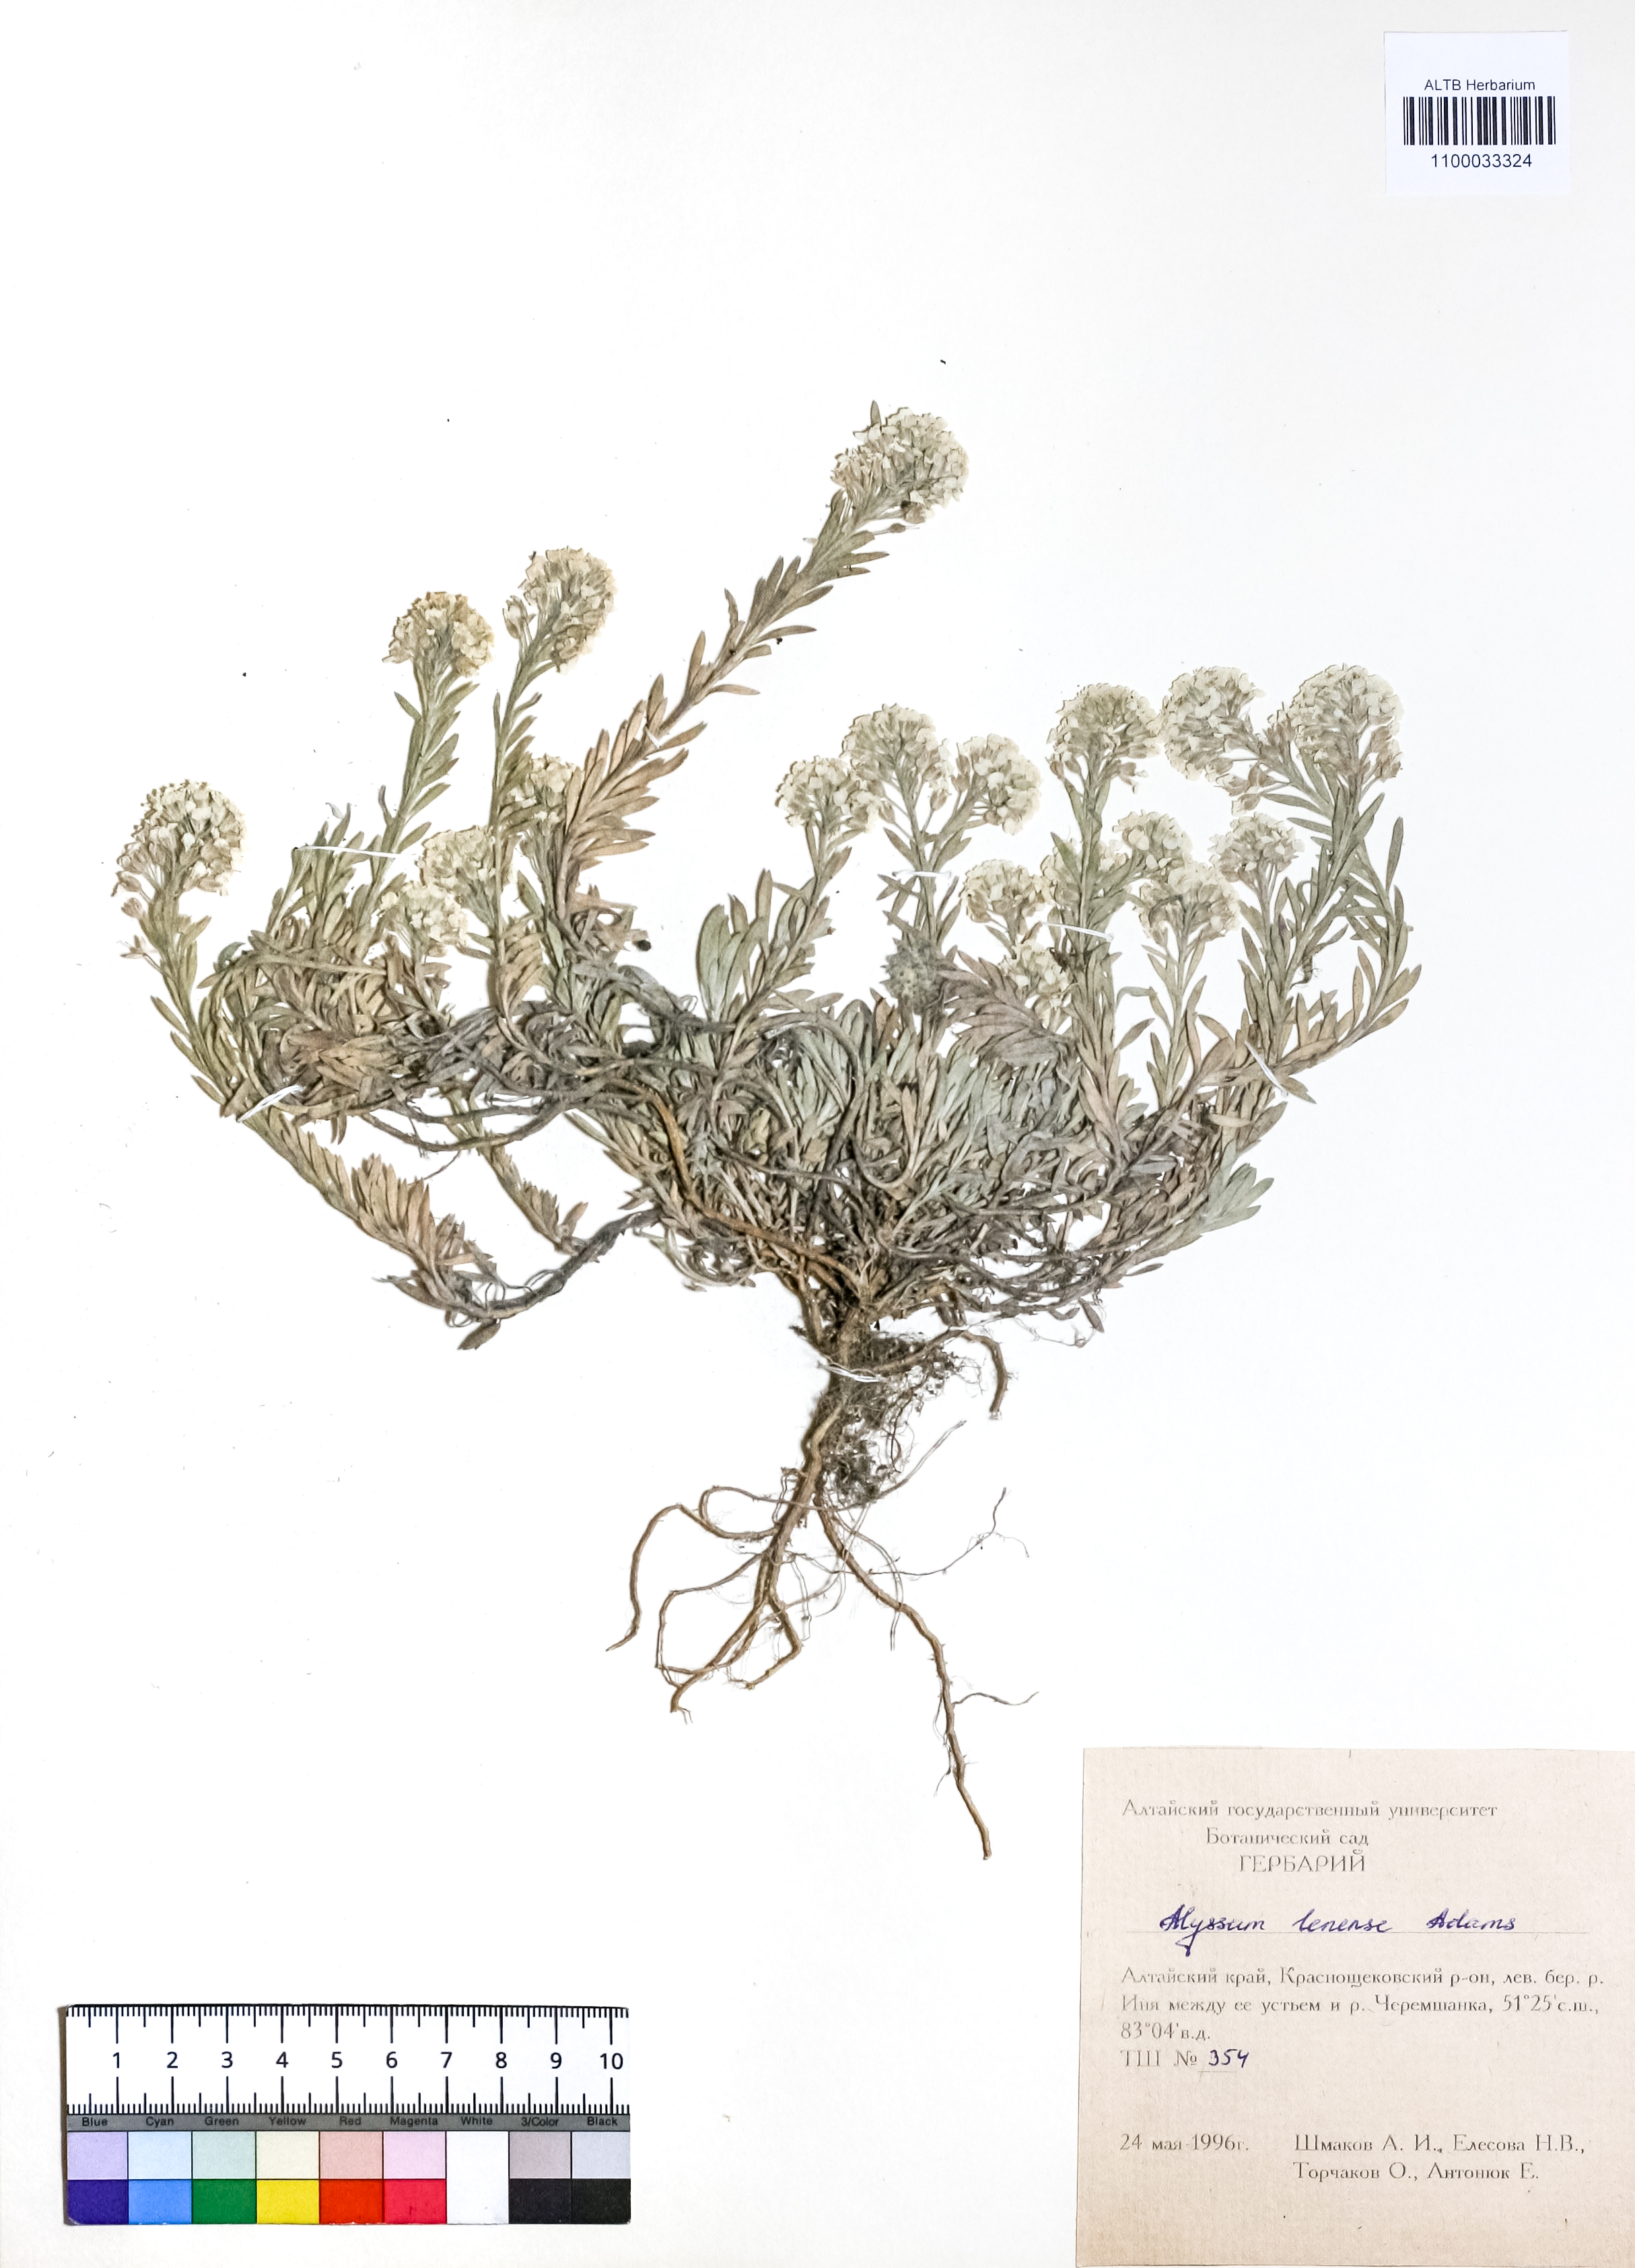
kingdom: Plantae
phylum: Tracheophyta
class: Magnoliopsida
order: Brassicales
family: Brassicaceae
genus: Alyssum
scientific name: Alyssum lenense
